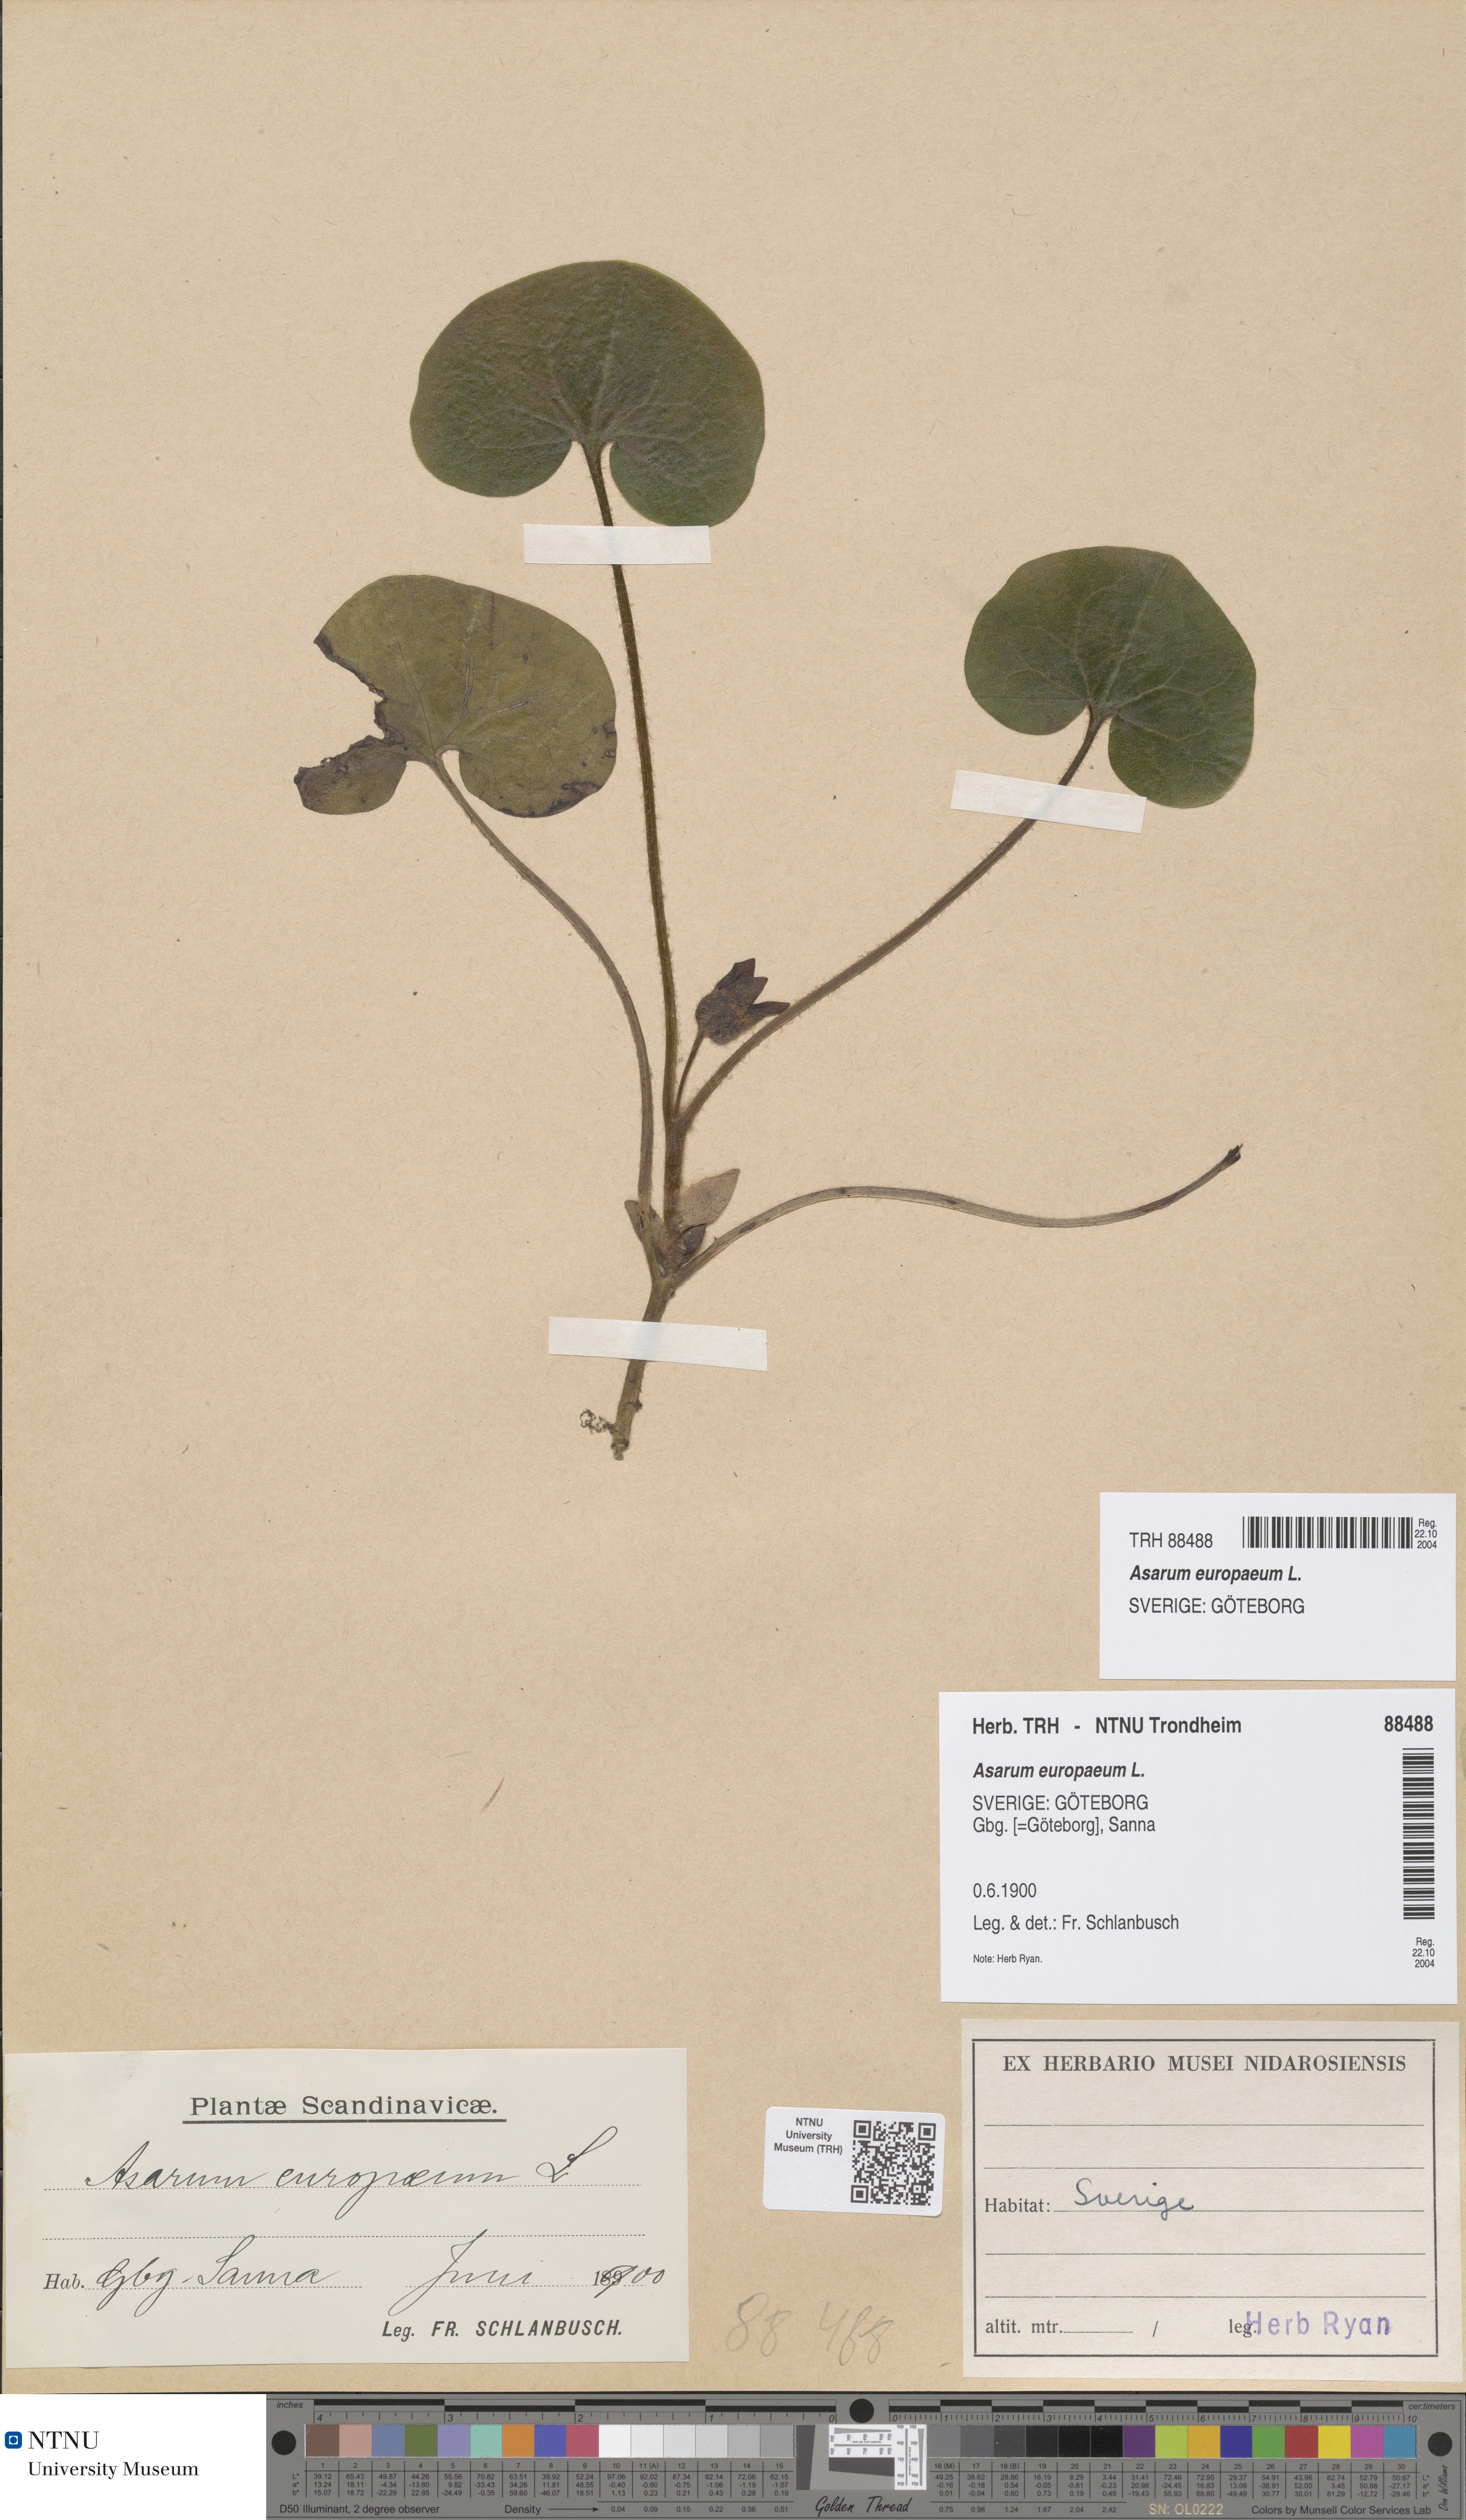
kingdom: Plantae
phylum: Tracheophyta
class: Magnoliopsida
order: Piperales
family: Aristolochiaceae
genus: Asarum
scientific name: Asarum europaeum
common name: Asarabacca
